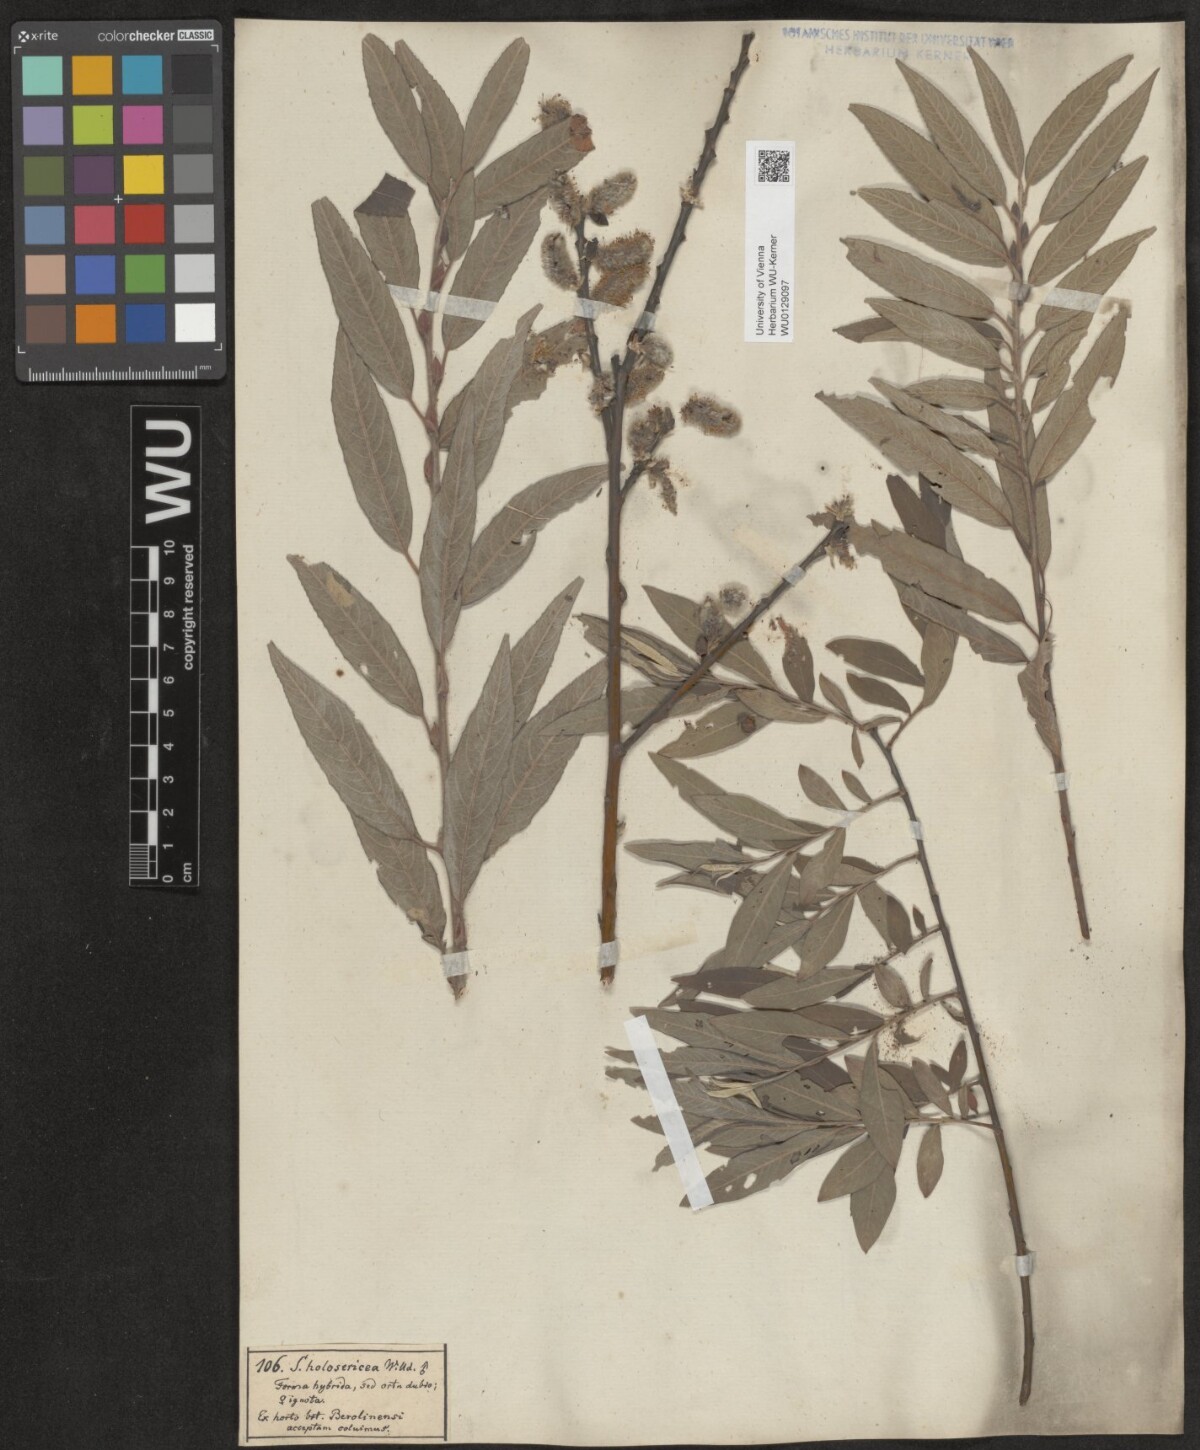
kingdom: Plantae
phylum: Tracheophyta
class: Magnoliopsida
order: Malpighiales
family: Salicaceae
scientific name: Salicaceae
